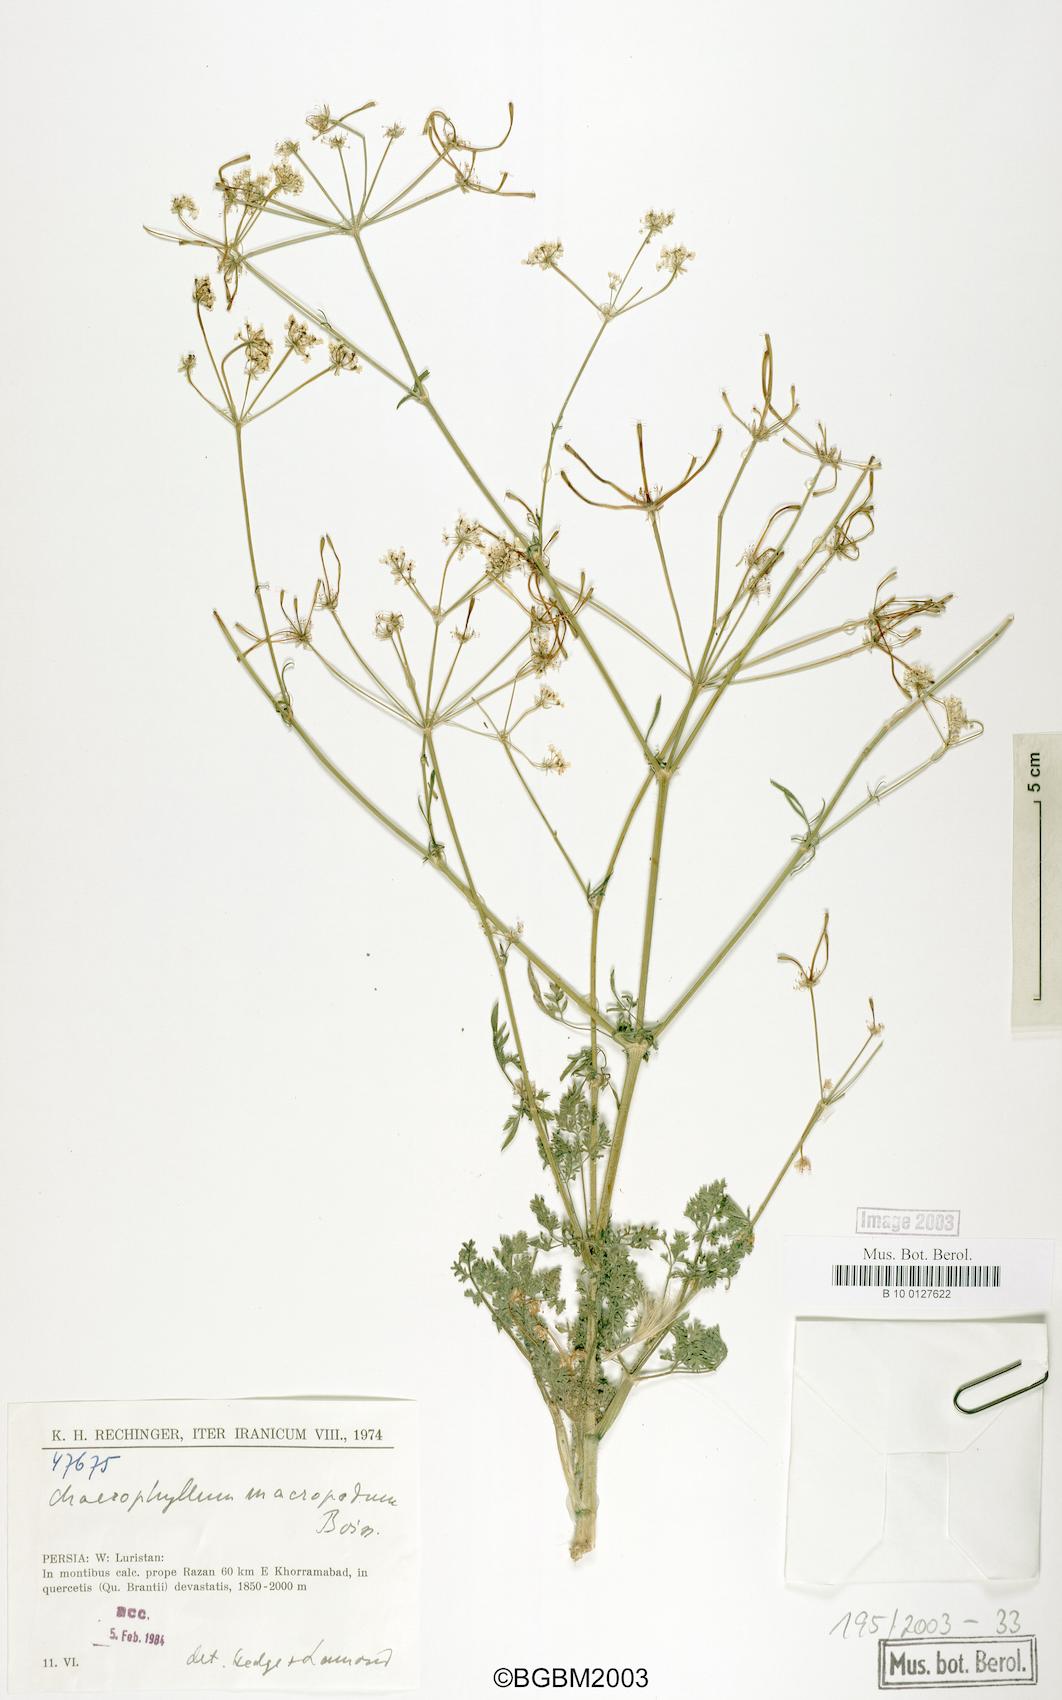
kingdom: Plantae
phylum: Tracheophyta
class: Magnoliopsida
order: Apiales
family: Apiaceae
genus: Chaerophyllum
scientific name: Chaerophyllum macropodum
